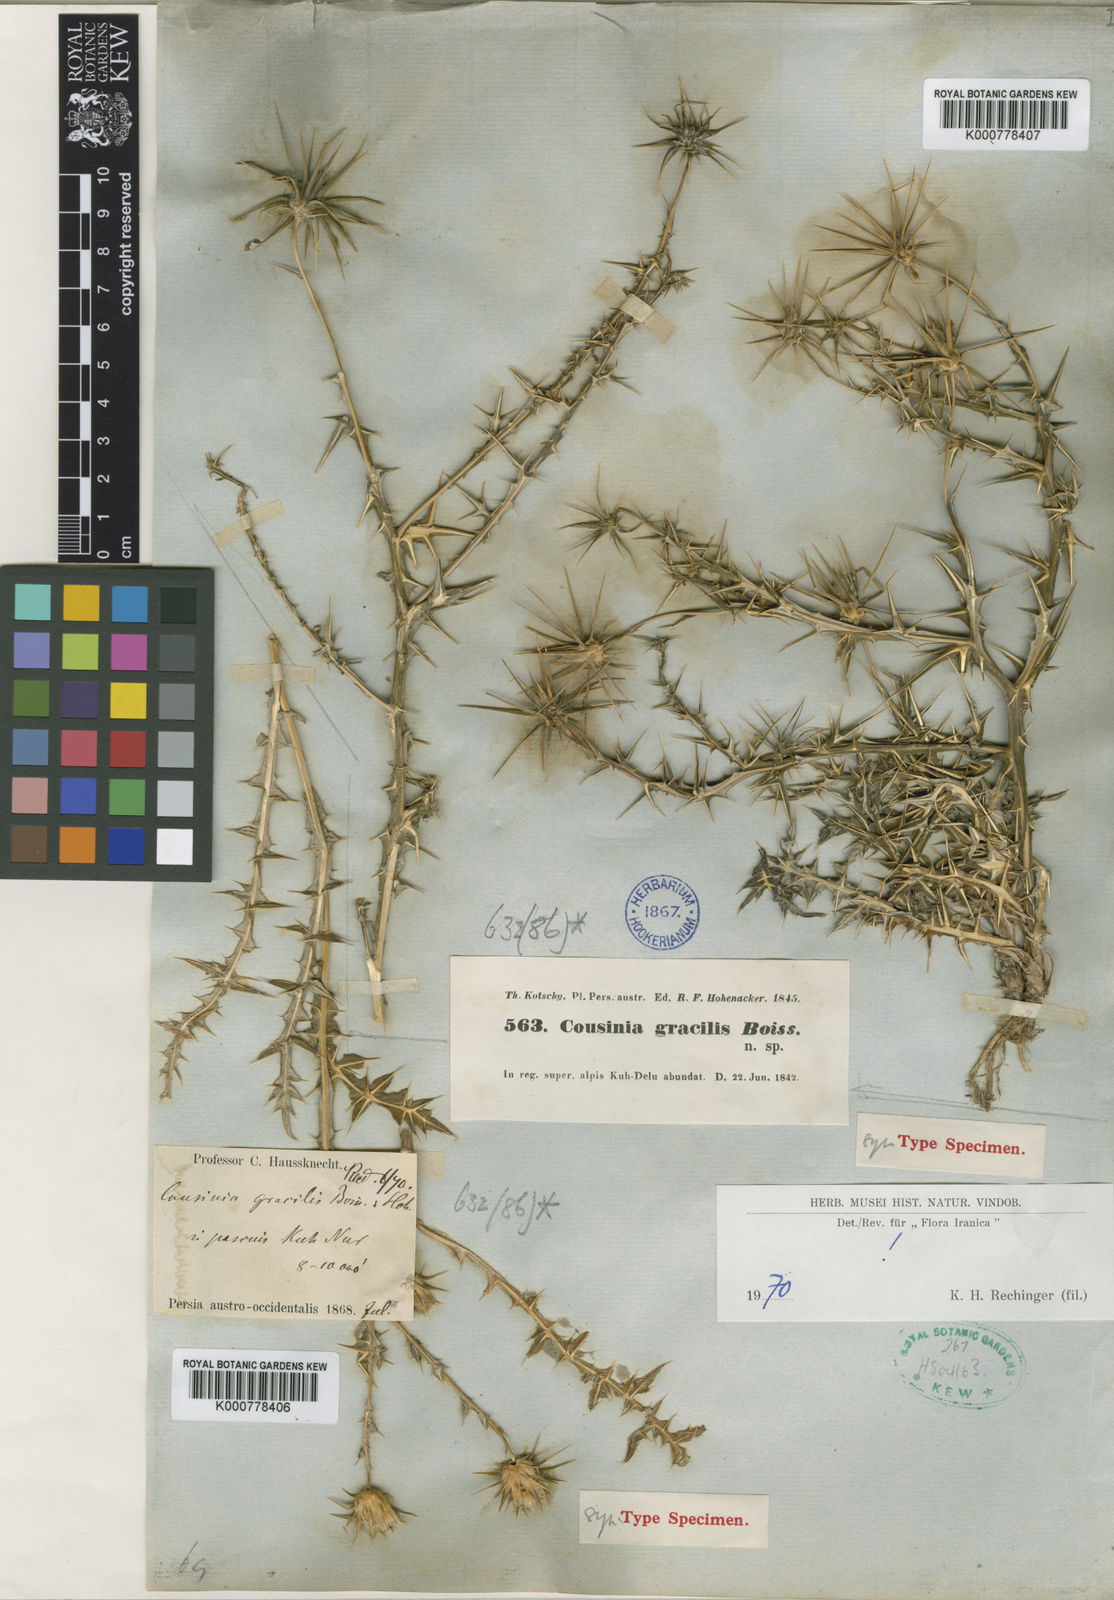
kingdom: Plantae
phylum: Tracheophyta
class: Magnoliopsida
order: Asterales
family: Asteraceae
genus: Cousinia
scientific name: Cousinia gracilis
